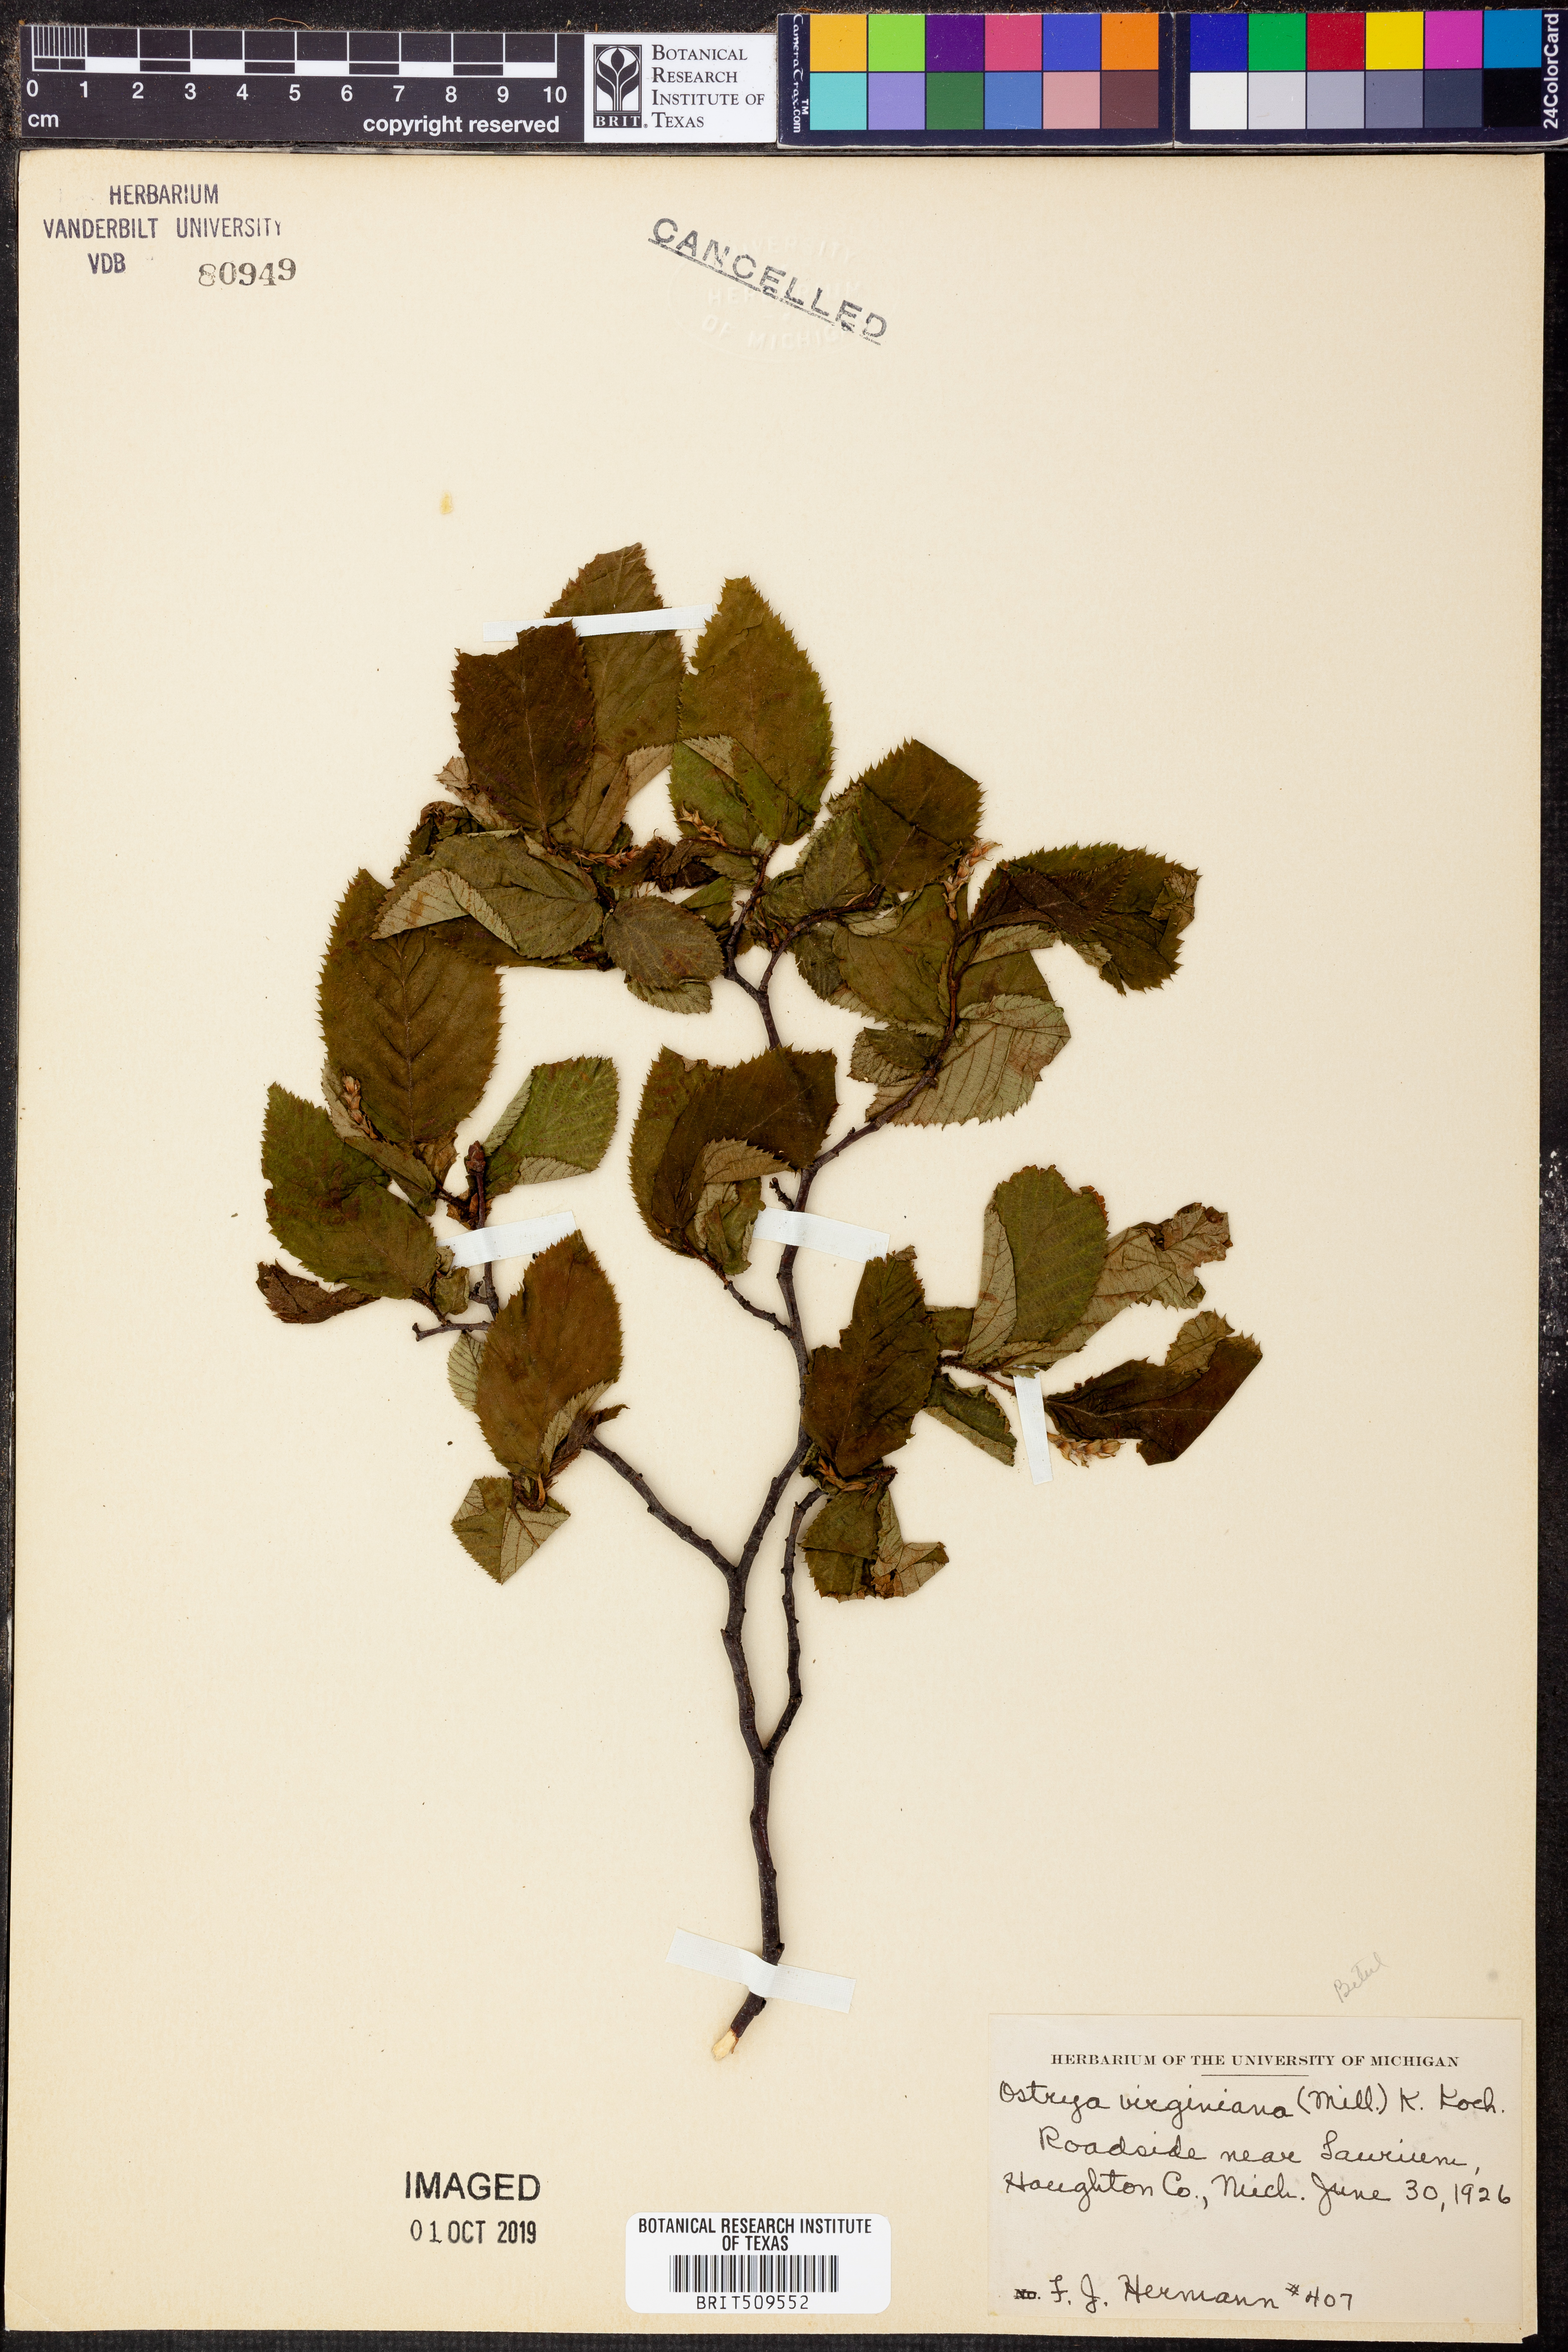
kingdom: Plantae
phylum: Tracheophyta
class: Magnoliopsida
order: Fagales
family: Betulaceae
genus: Ostrya
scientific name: Ostrya virginiana
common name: Ironwood
